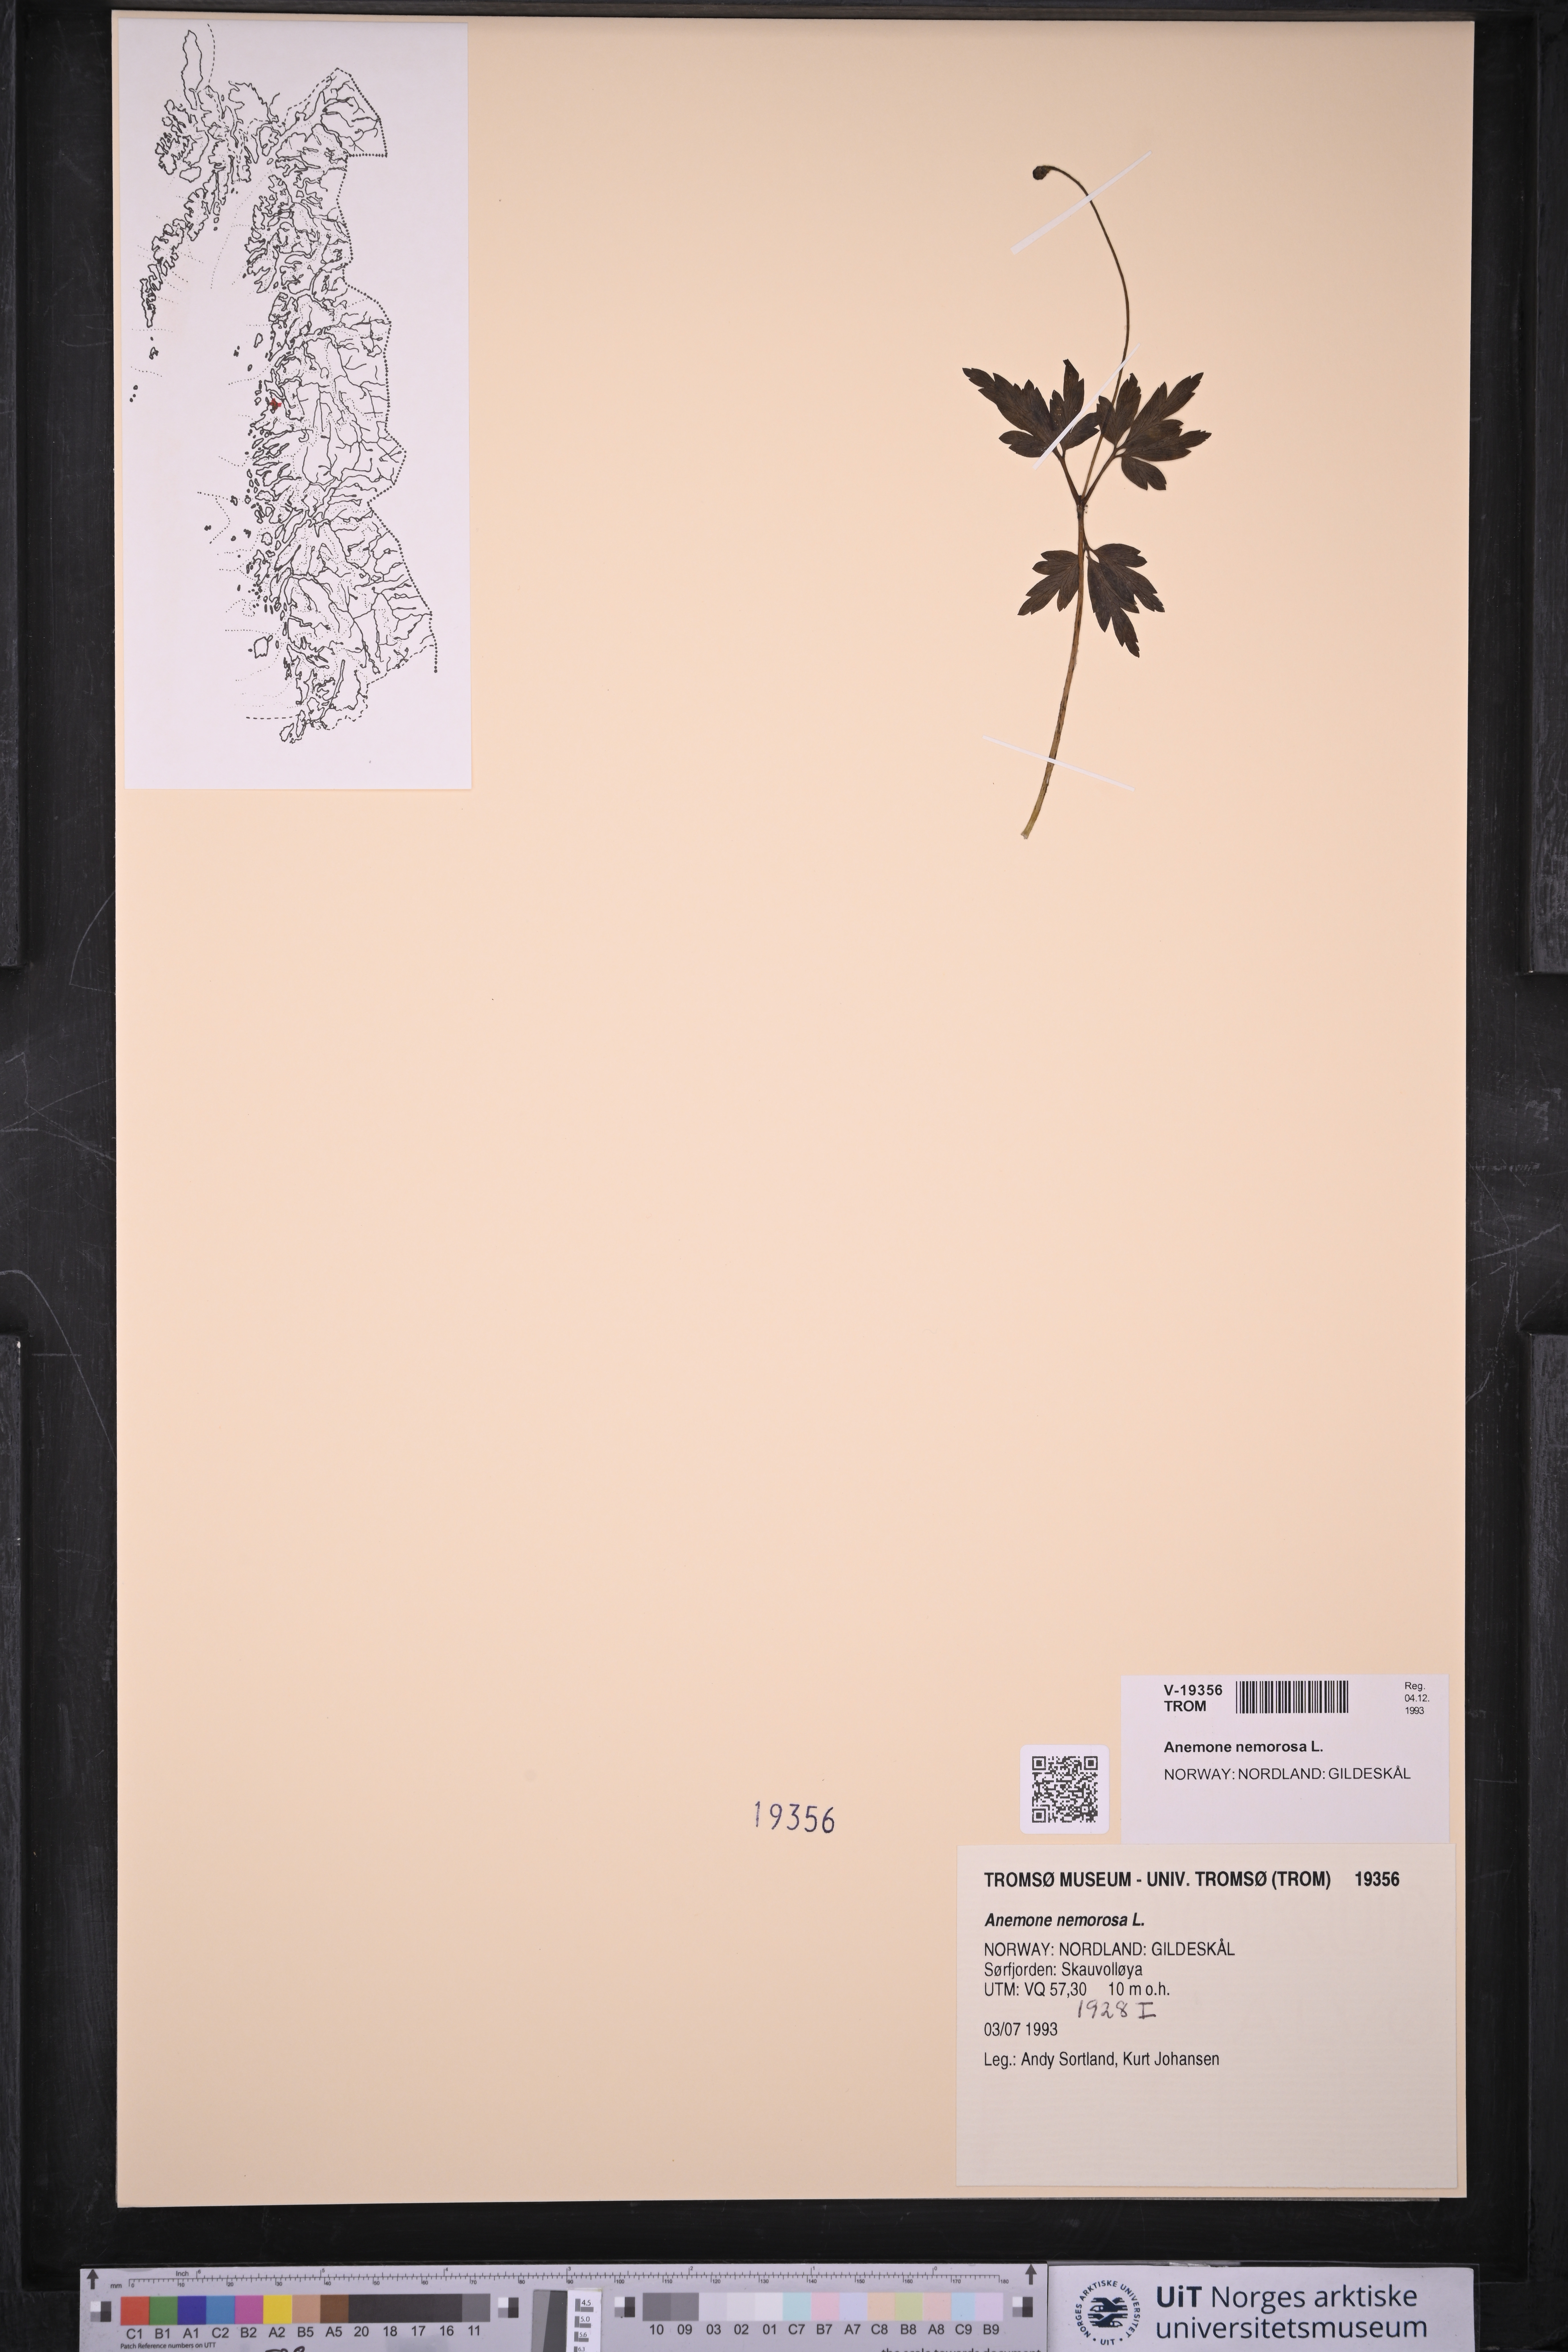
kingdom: Plantae
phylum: Tracheophyta
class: Magnoliopsida
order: Ranunculales
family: Ranunculaceae
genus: Anemone
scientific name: Anemone nemorosa
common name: Wood anemone
